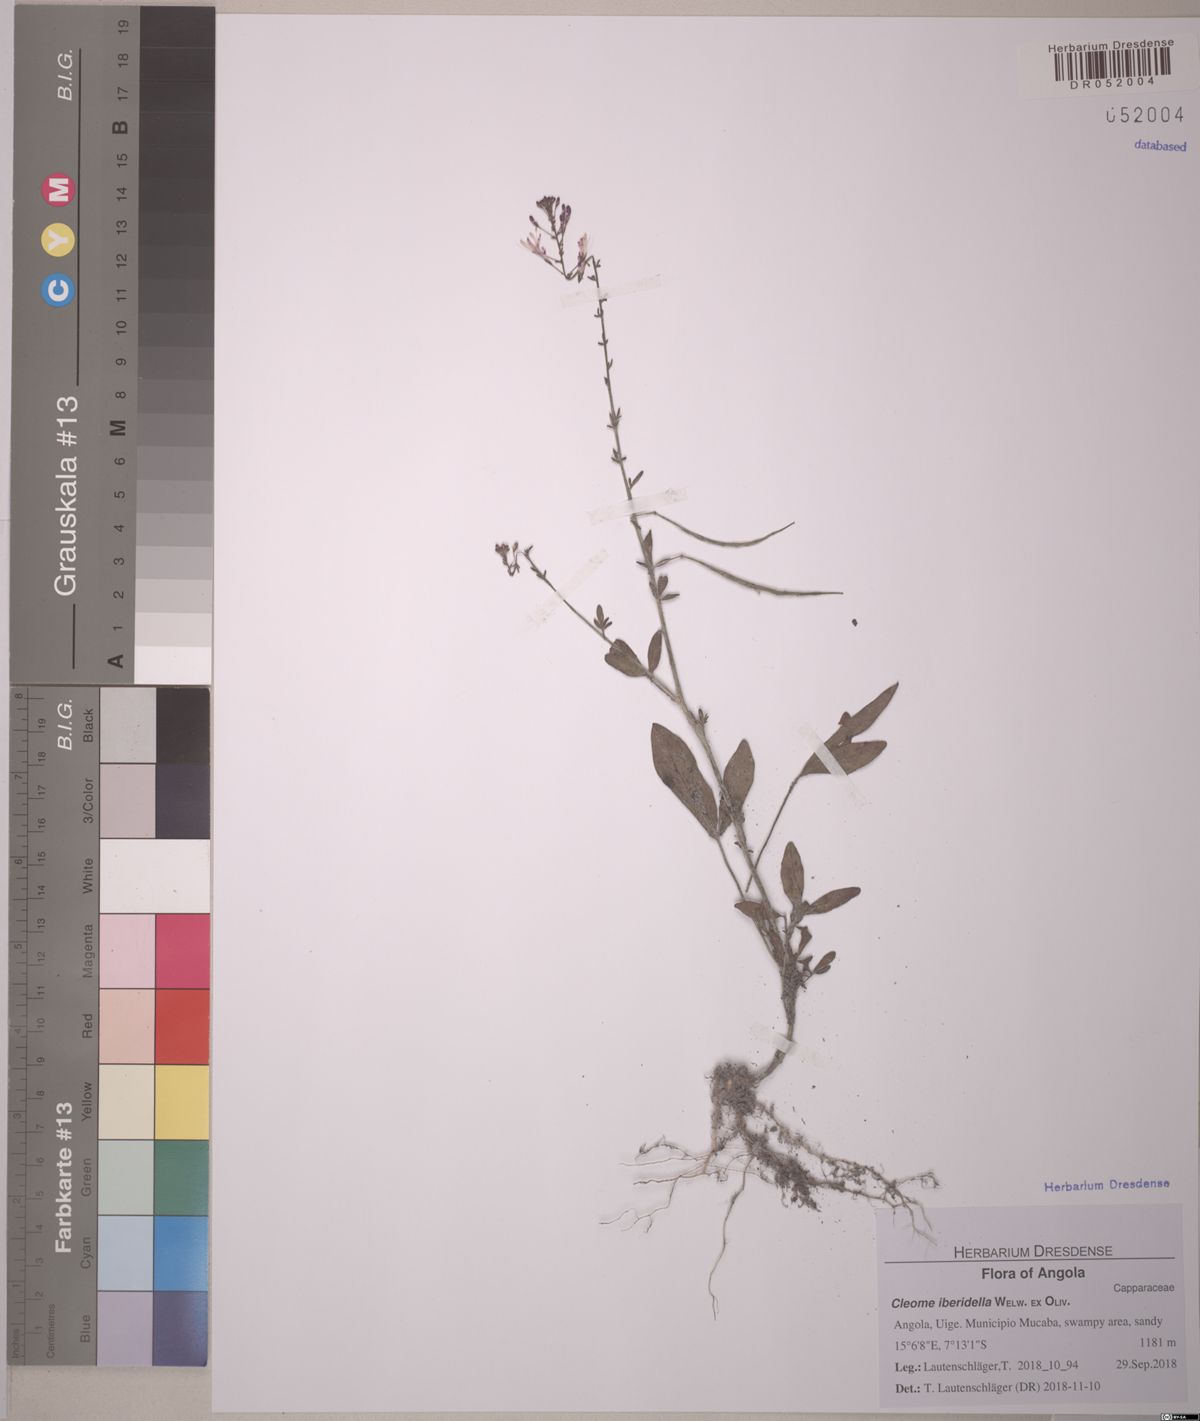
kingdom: Plantae
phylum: Tracheophyta
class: Magnoliopsida
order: Brassicales
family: Cleomaceae
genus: Sieruela
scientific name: Sieruela iberidella
